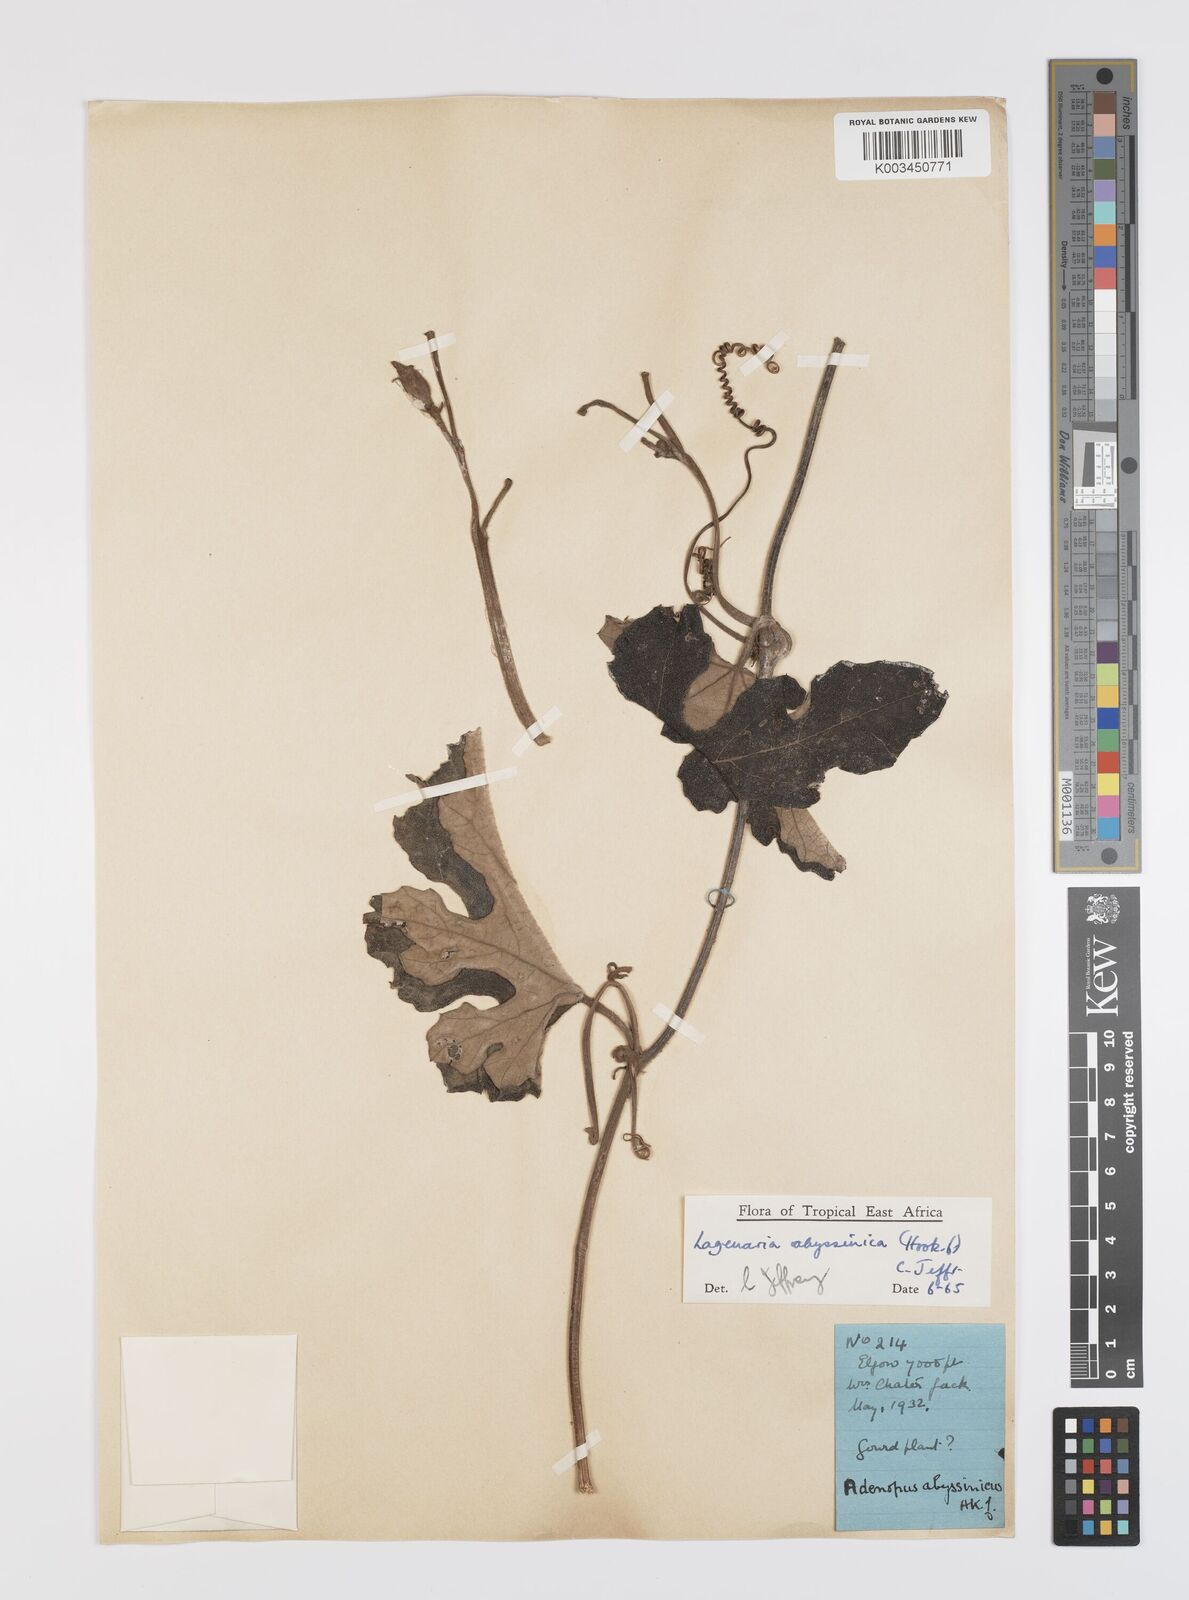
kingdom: Plantae
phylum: Tracheophyta
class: Magnoliopsida
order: Cucurbitales
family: Cucurbitaceae
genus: Lagenaria
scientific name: Lagenaria abyssinica
